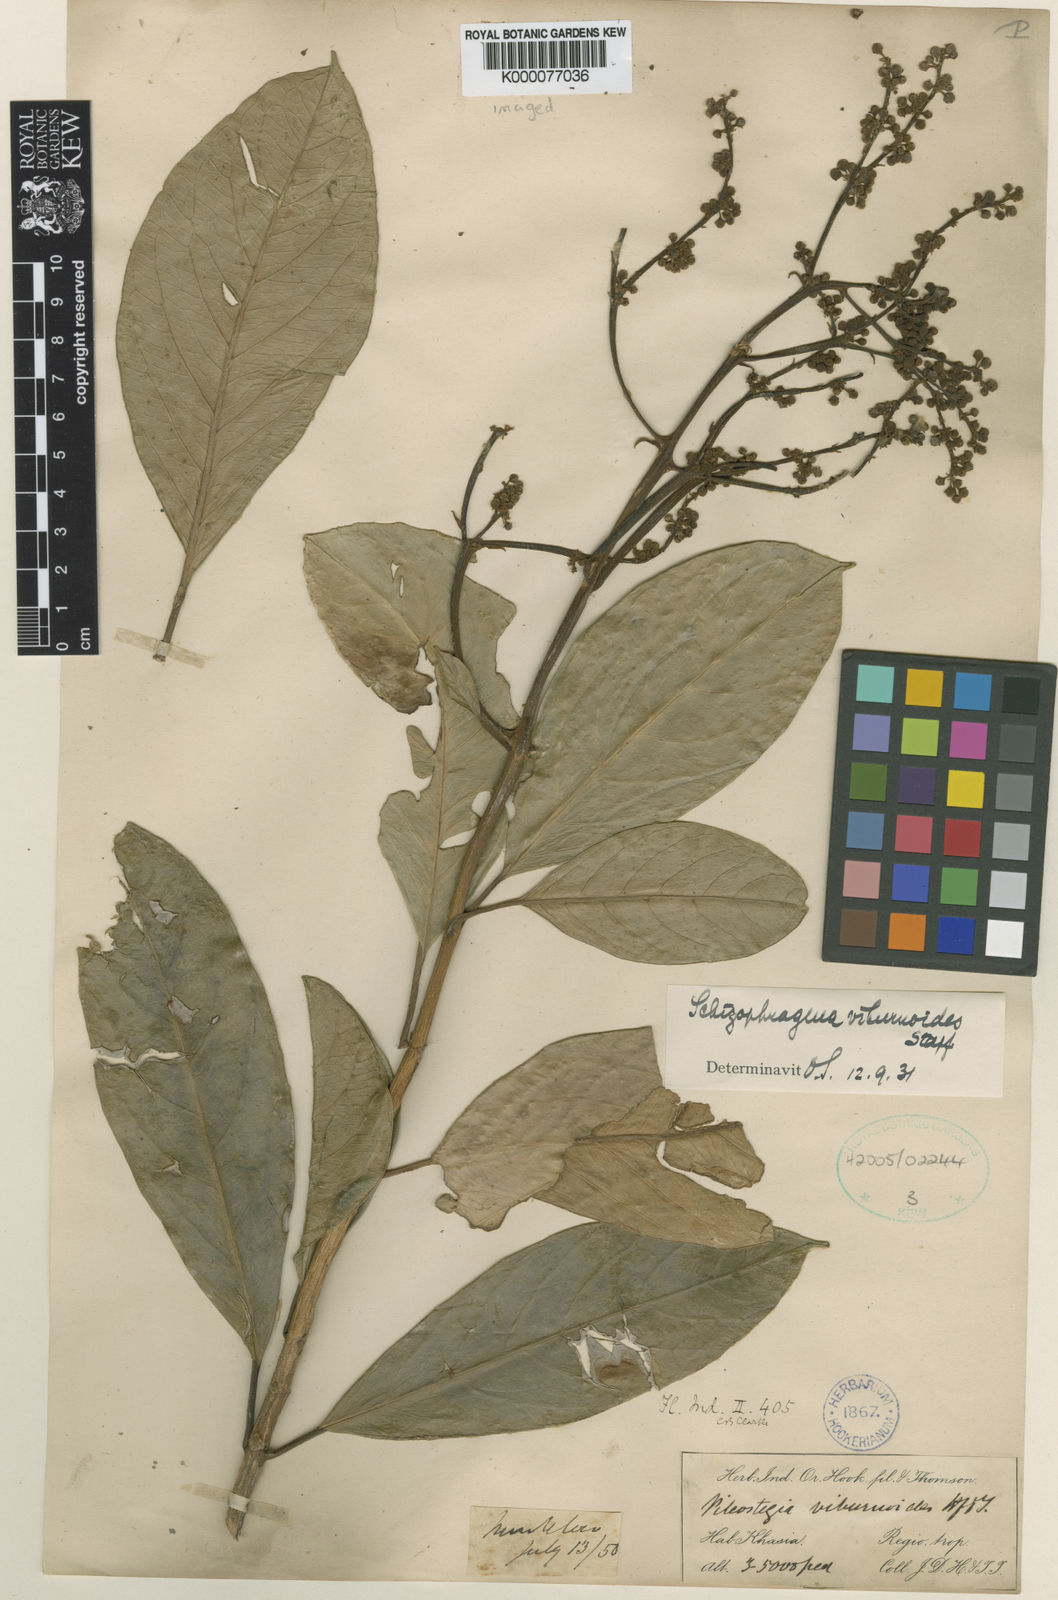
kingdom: Plantae
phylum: Tracheophyta
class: Magnoliopsida
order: Cornales
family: Hydrangeaceae
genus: Hydrangea
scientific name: Hydrangea viburnoides
